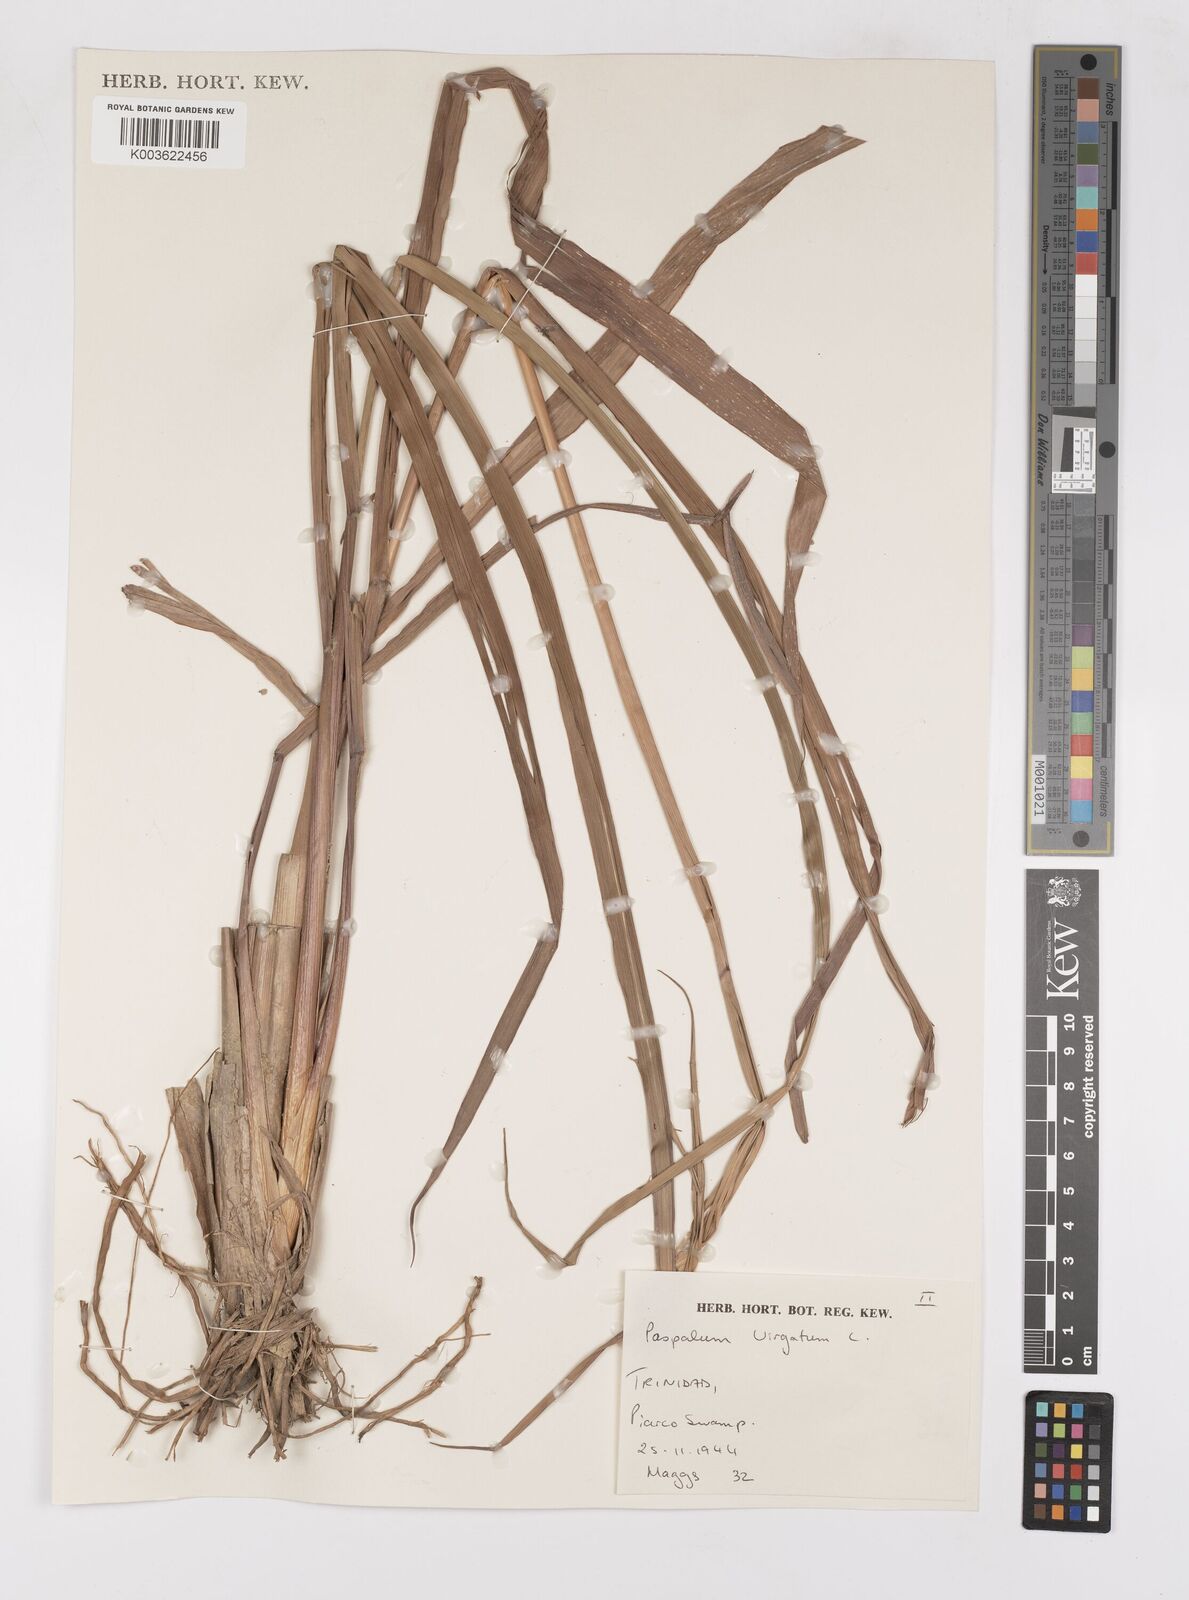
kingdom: Plantae
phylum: Tracheophyta
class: Liliopsida
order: Poales
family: Poaceae
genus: Paspalum
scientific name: Paspalum virgatum
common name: Talquezal
